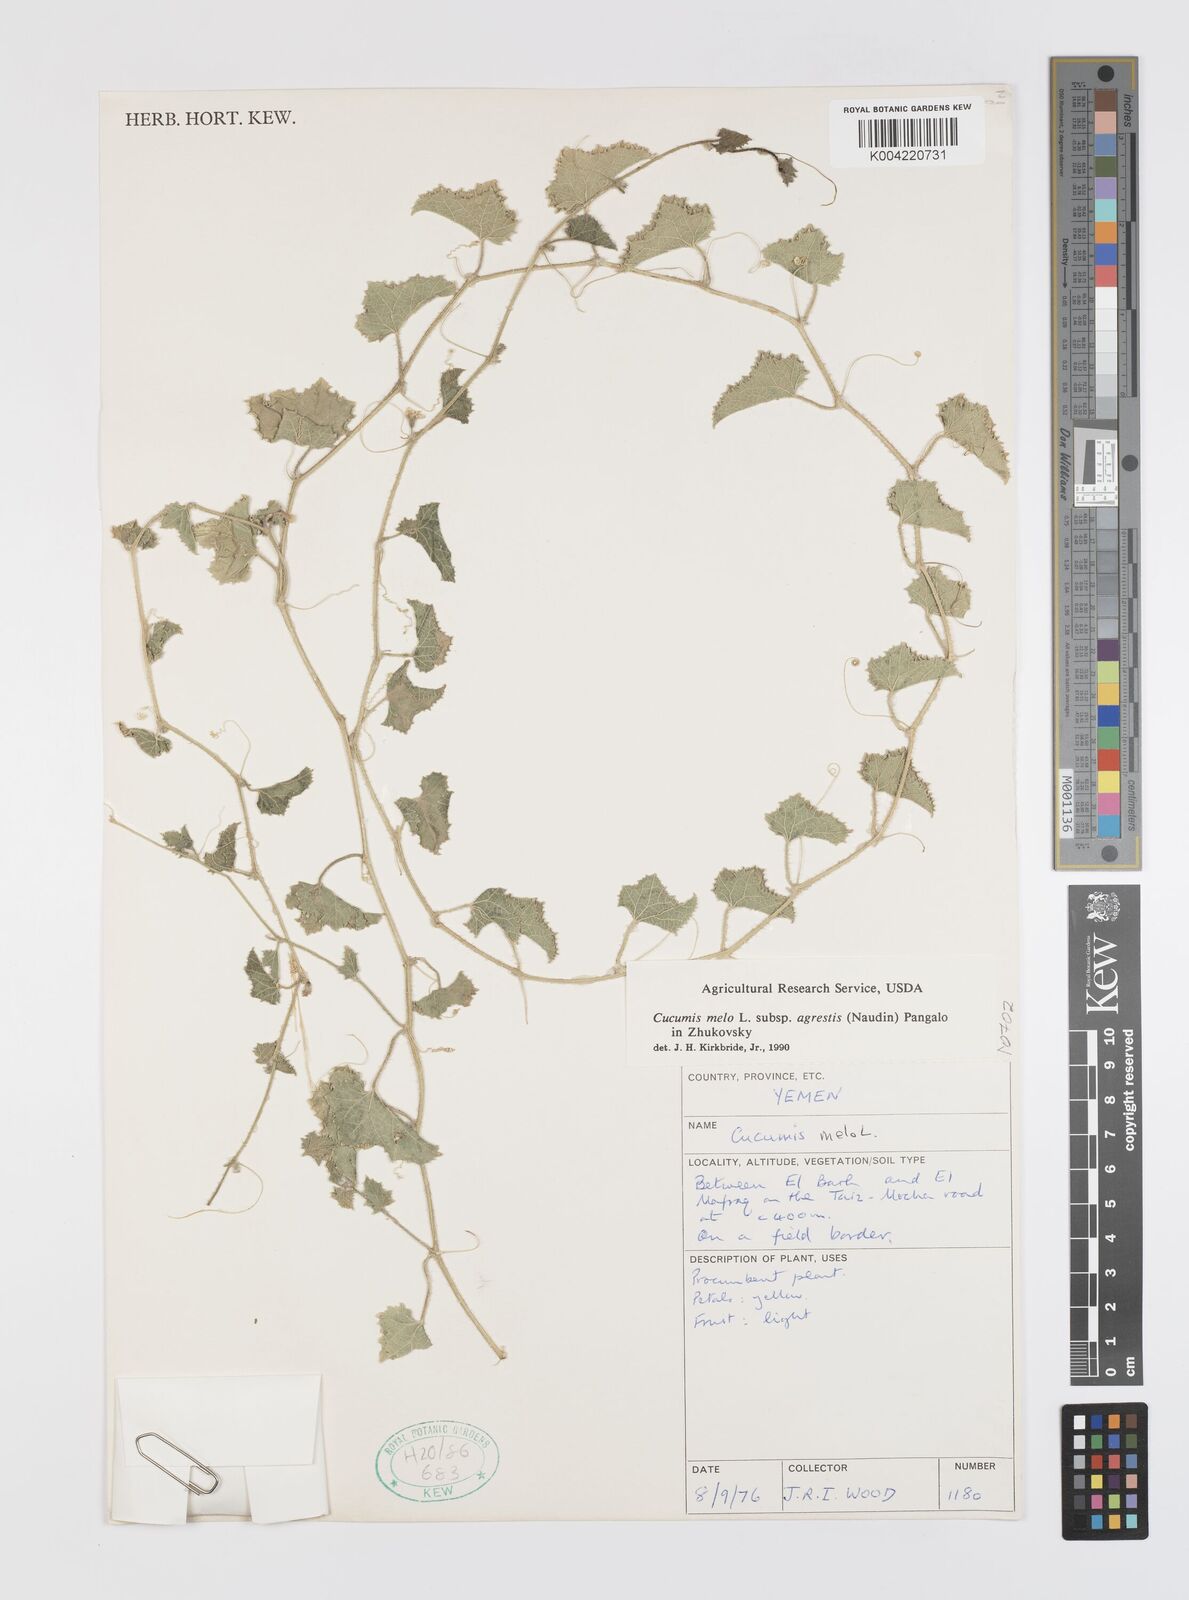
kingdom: Plantae
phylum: Tracheophyta
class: Magnoliopsida
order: Cucurbitales
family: Cucurbitaceae
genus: Cucumis
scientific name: Cucumis melo
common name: Melon
